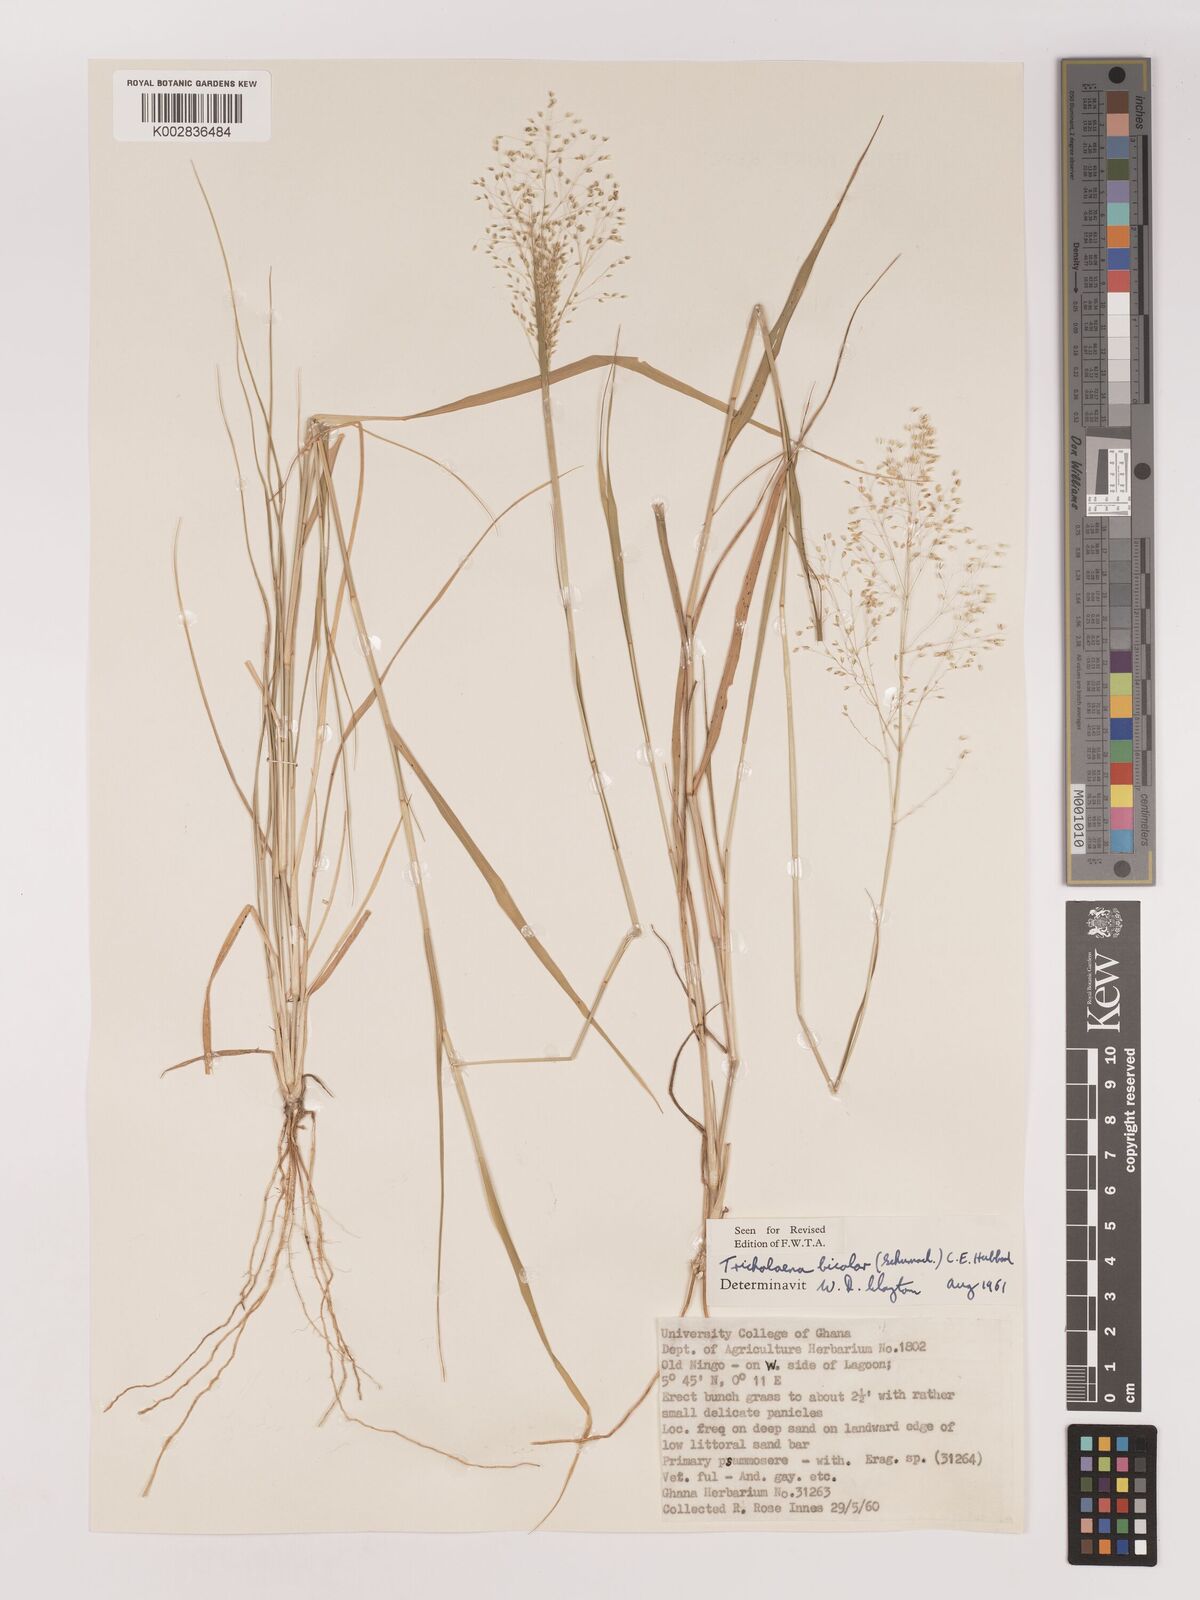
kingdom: Plantae
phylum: Tracheophyta
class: Liliopsida
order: Poales
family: Poaceae
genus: Tricholaena
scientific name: Tricholaena monachne
